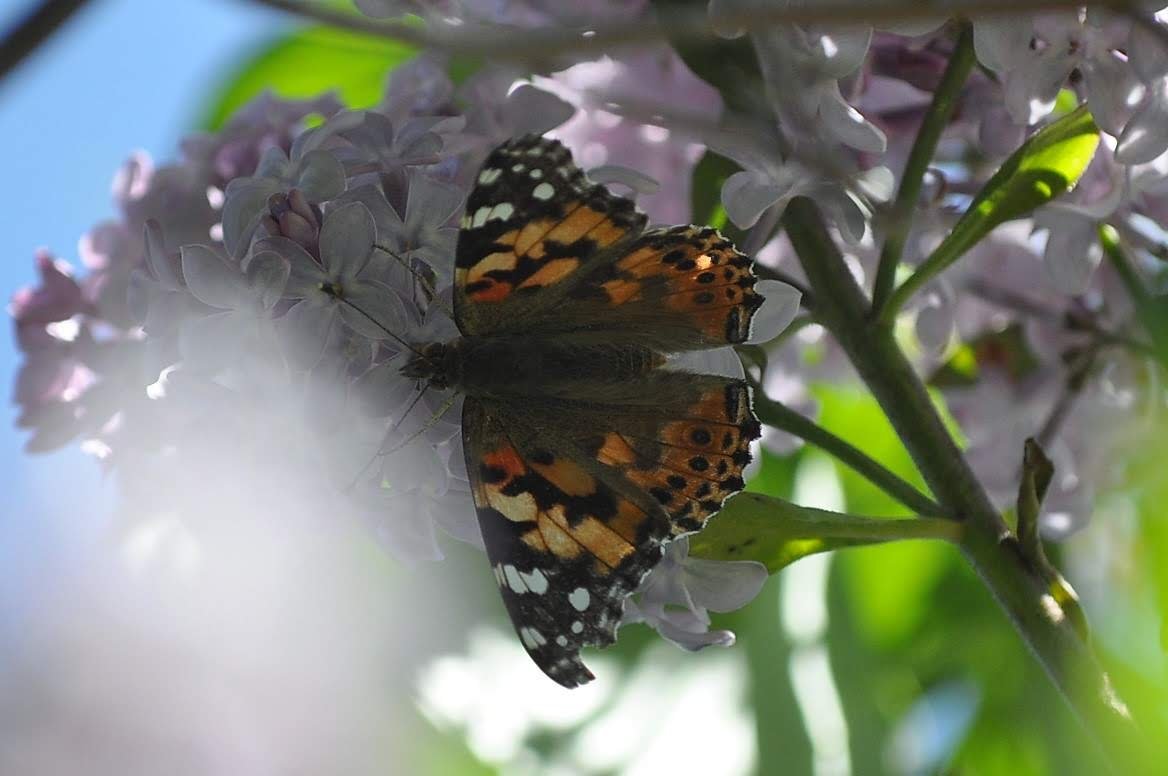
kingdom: Animalia
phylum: Arthropoda
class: Insecta
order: Lepidoptera
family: Nymphalidae
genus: Vanessa
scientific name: Vanessa cardui
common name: Painted Lady
